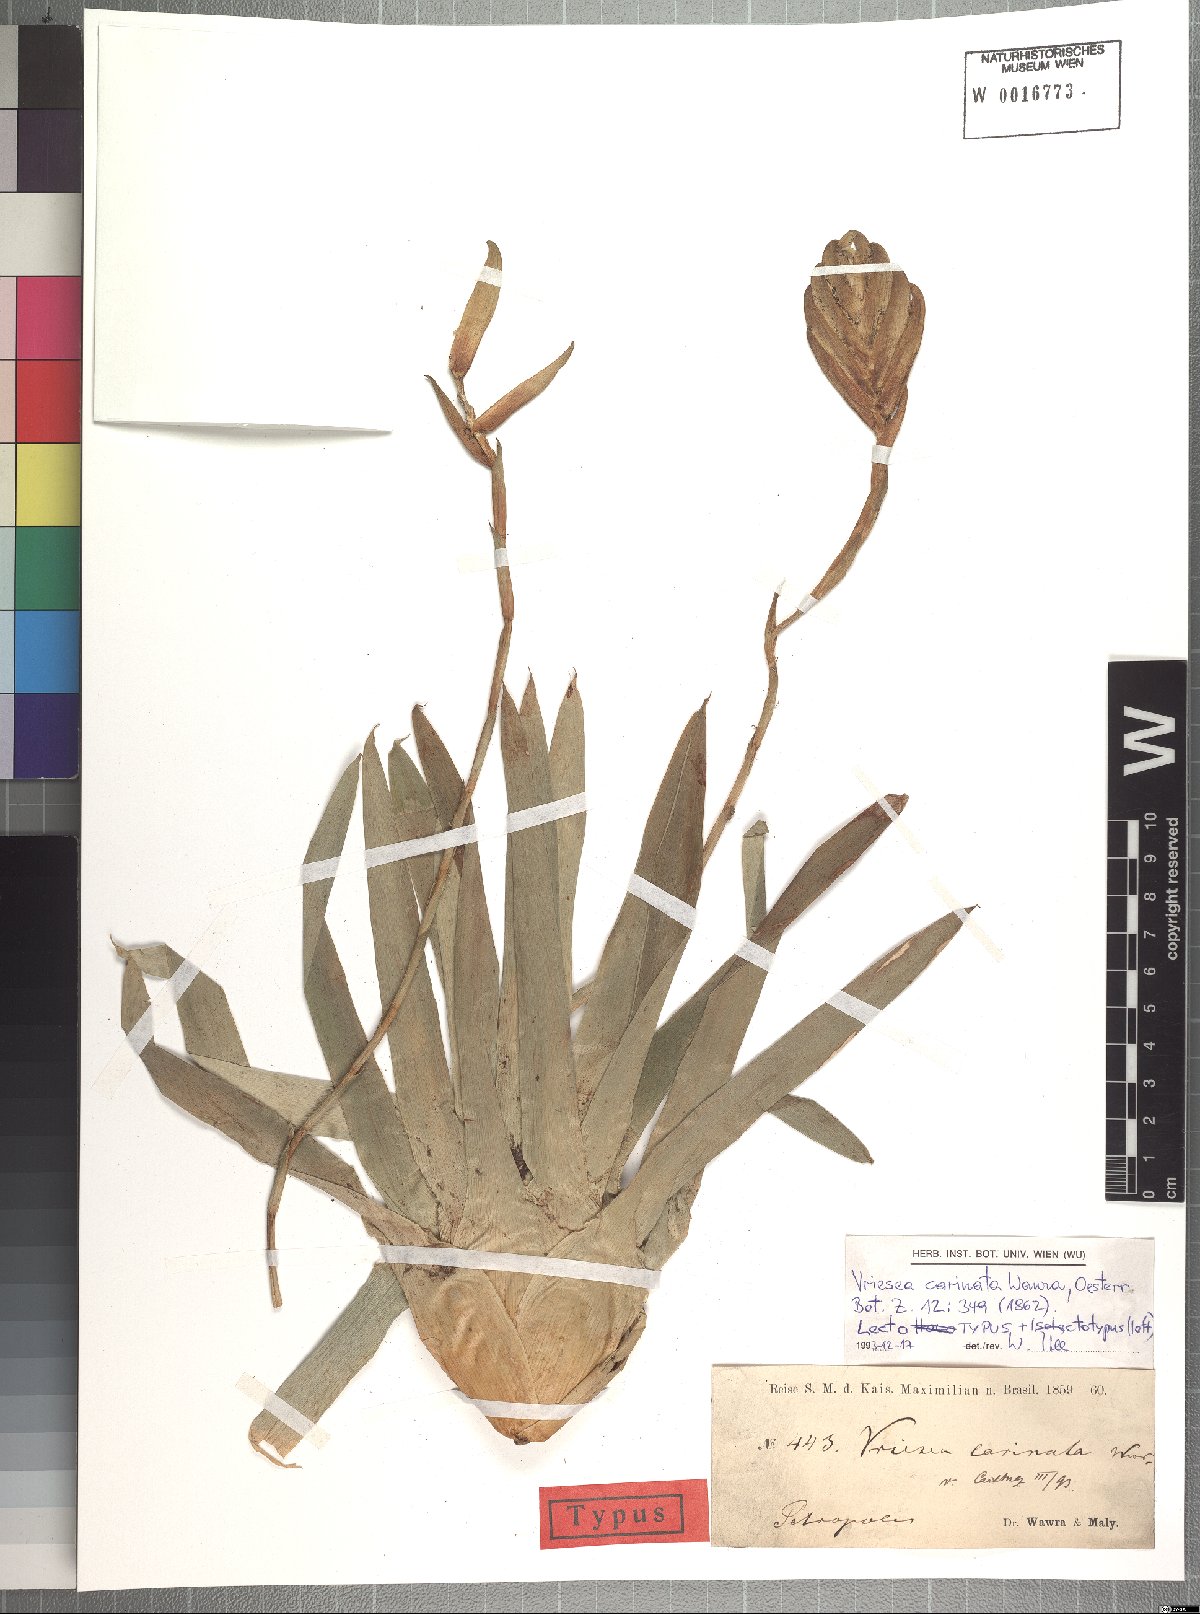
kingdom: Plantae
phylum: Tracheophyta
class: Liliopsida
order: Poales
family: Bromeliaceae
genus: Vriesea
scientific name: Vriesea carinata
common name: Lobster-claws
